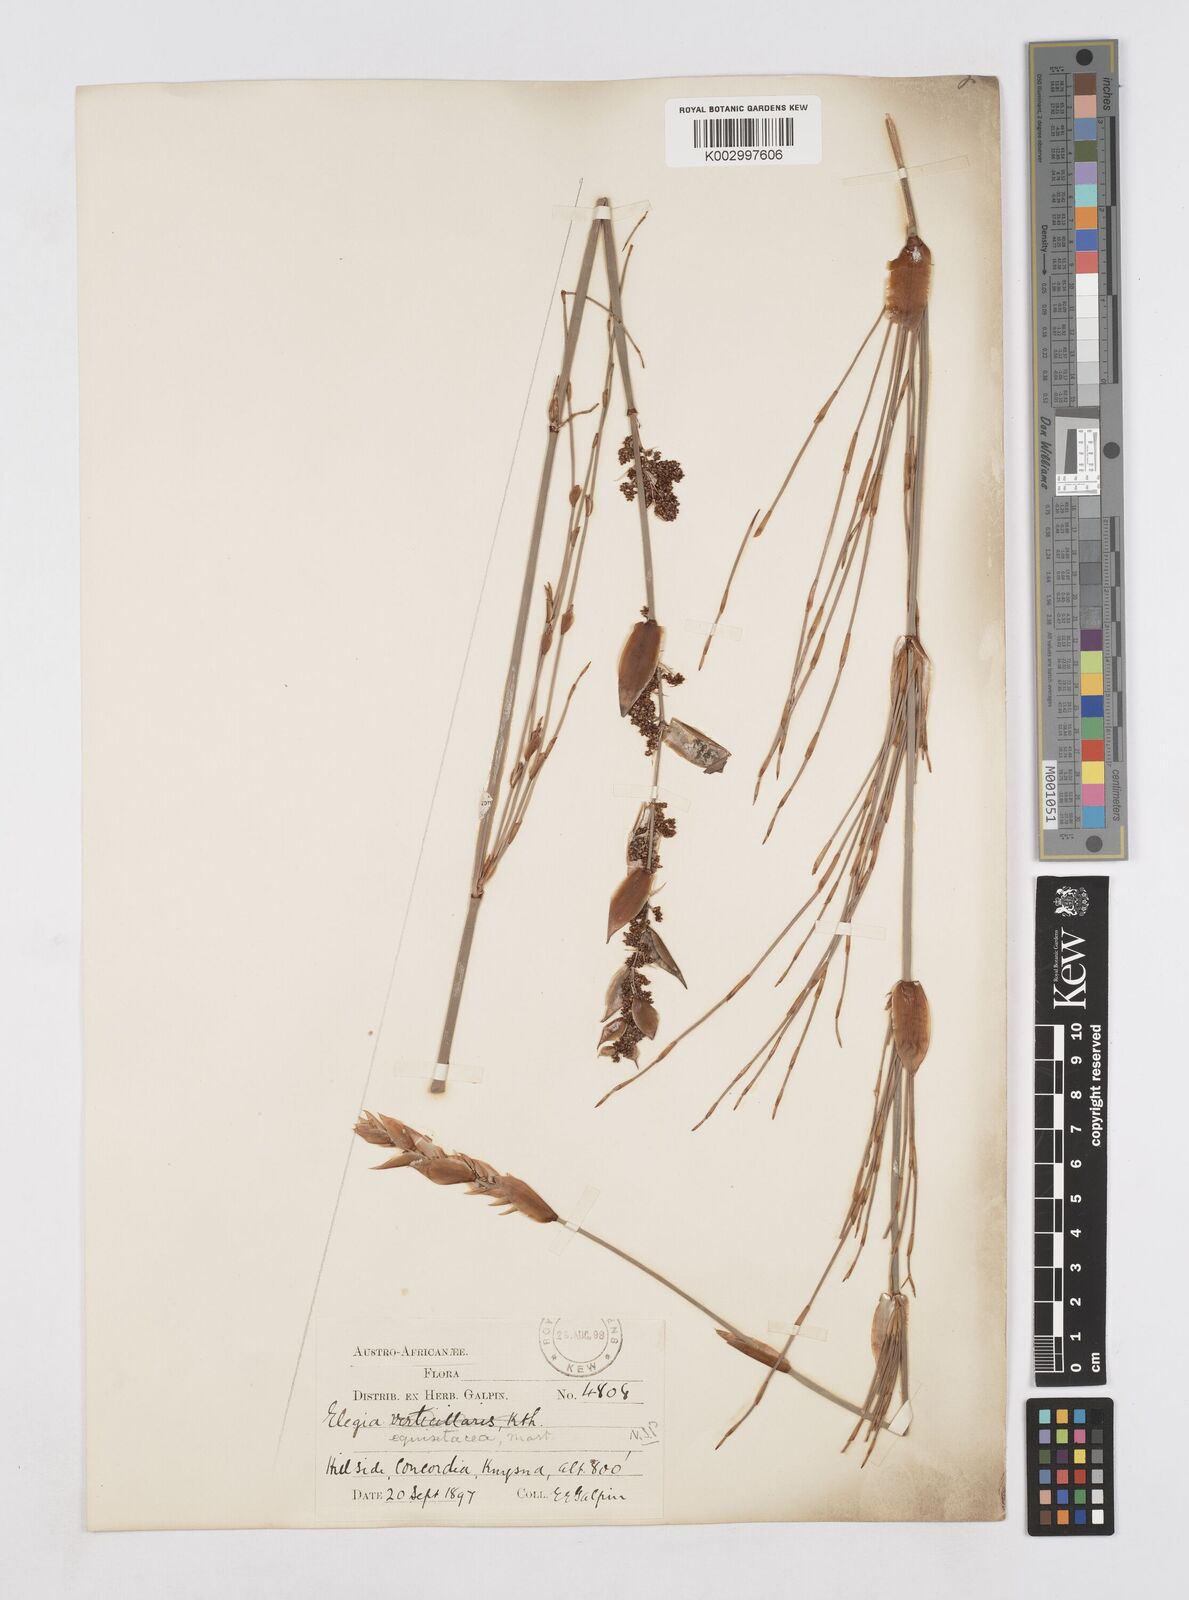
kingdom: Plantae
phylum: Tracheophyta
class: Liliopsida
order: Poales
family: Restionaceae
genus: Elegia
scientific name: Elegia equisetacea
